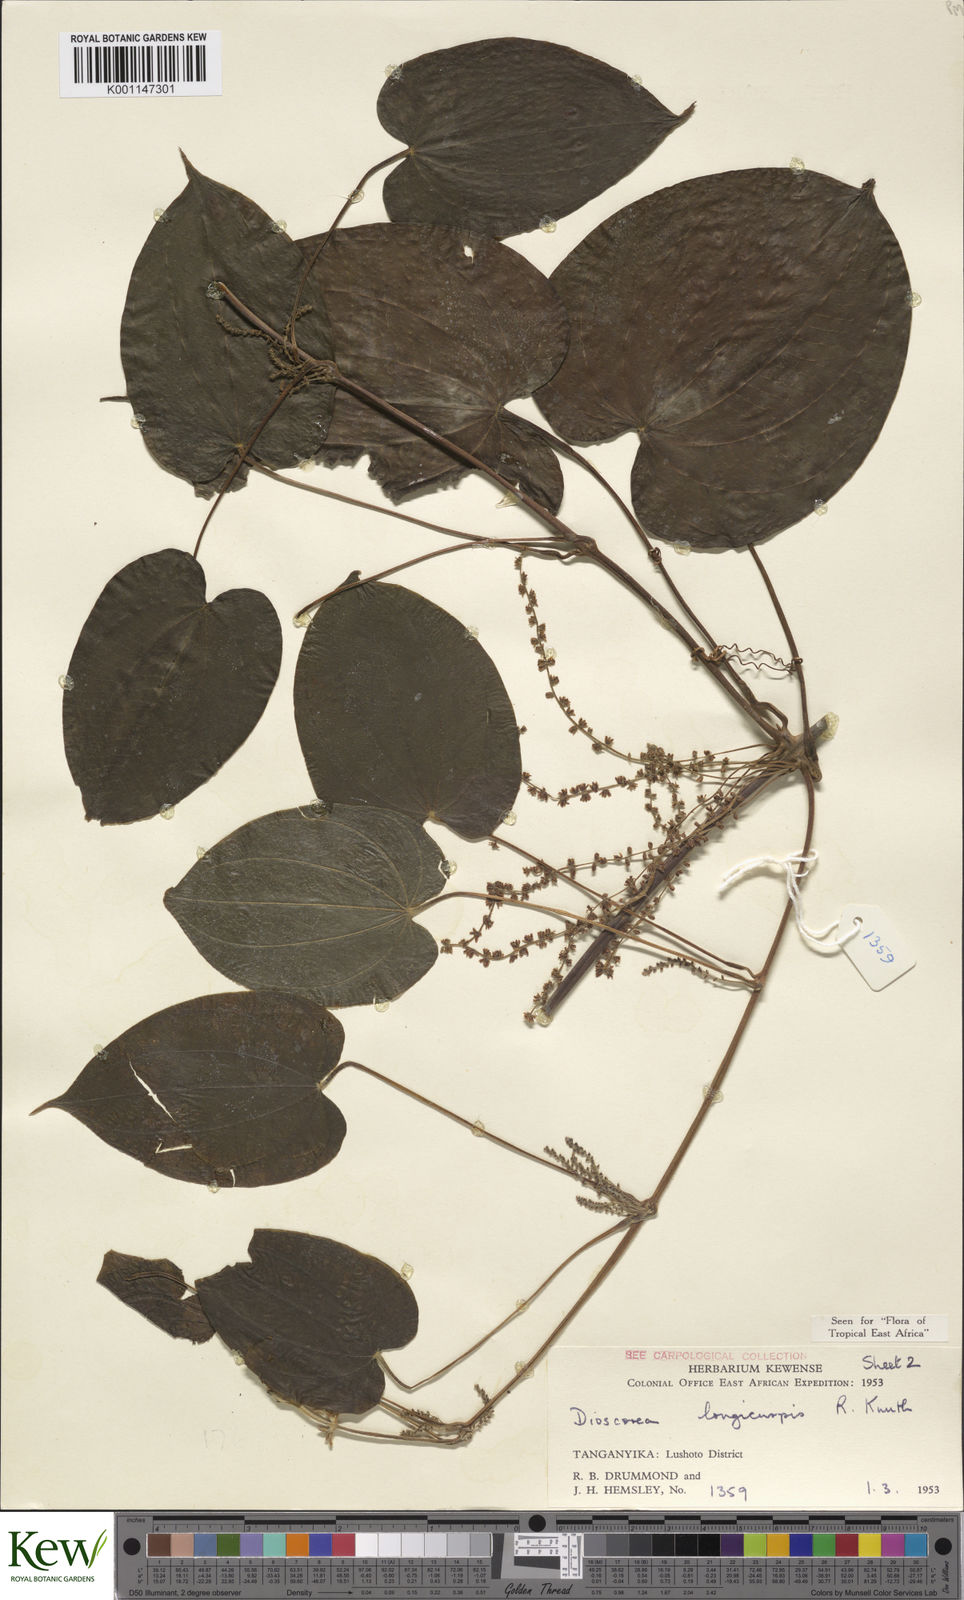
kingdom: Plantae
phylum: Tracheophyta
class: Liliopsida
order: Dioscoreales
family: Dioscoreaceae
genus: Dioscorea
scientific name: Dioscorea longicuspis
